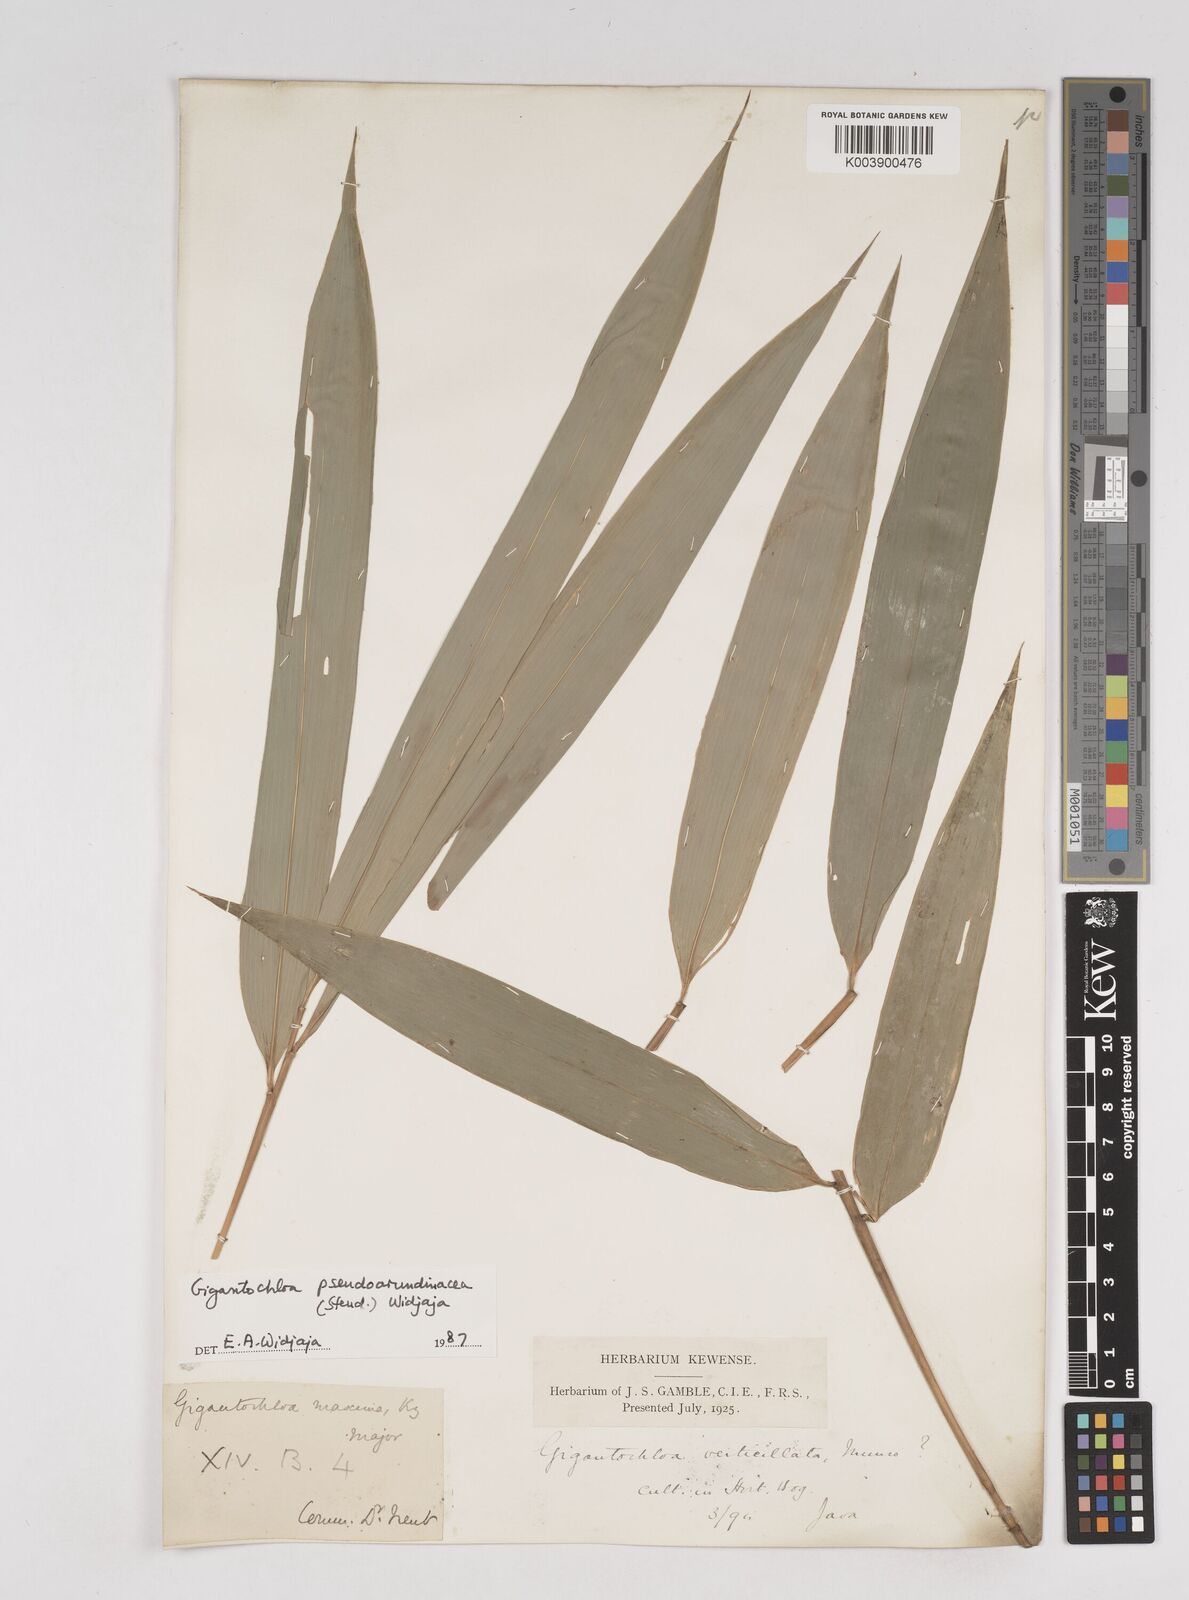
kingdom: Plantae
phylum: Tracheophyta
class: Liliopsida
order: Poales
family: Poaceae
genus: Gigantochloa
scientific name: Gigantochloa verticillata
